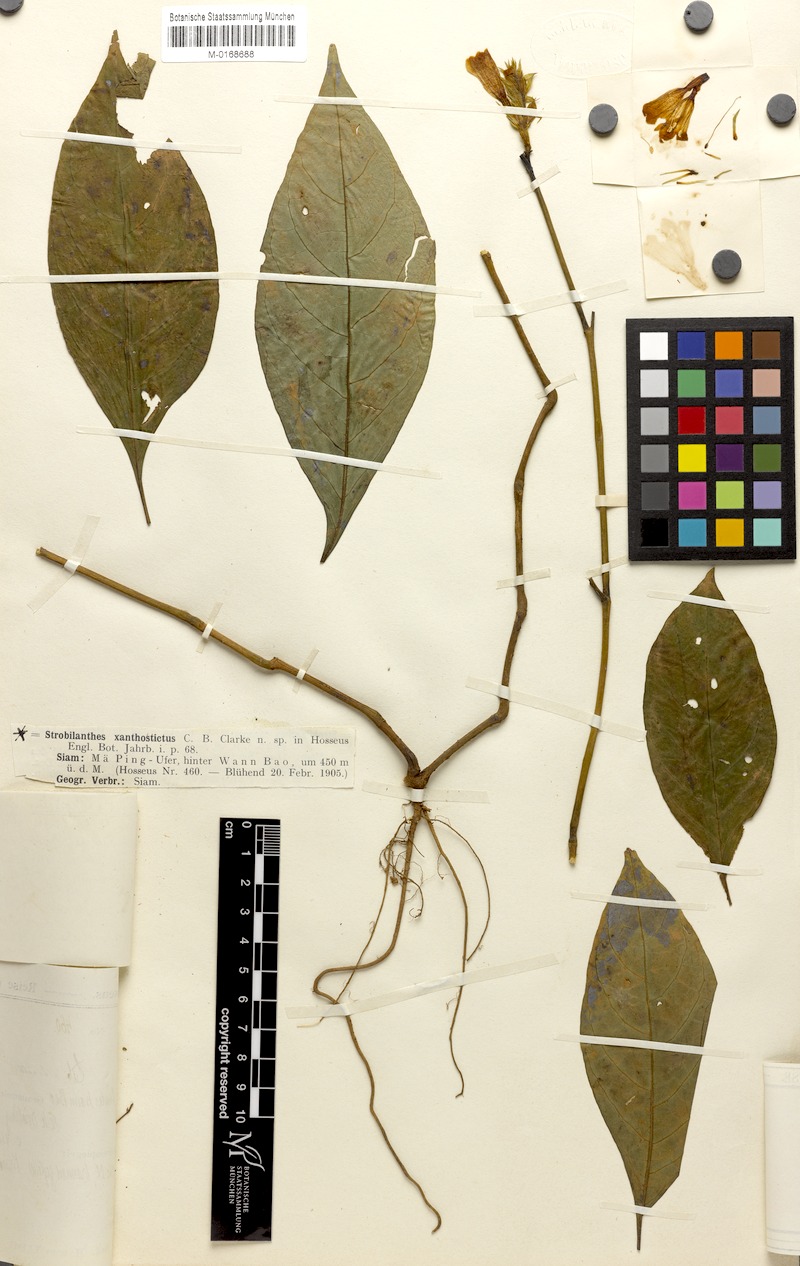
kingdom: Plantae
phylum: Tracheophyta
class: Magnoliopsida
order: Lamiales
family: Acanthaceae
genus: Strobilanthes
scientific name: Strobilanthes xanthosticta
